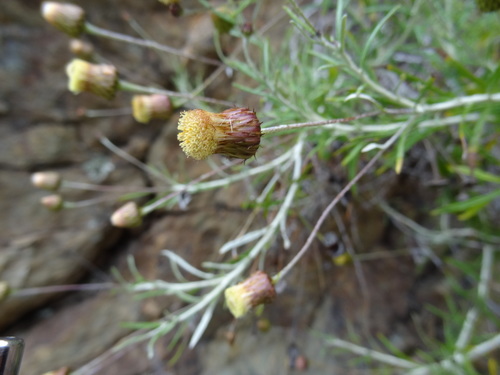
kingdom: Plantae
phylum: Tracheophyta
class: Magnoliopsida
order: Asterales
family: Asteraceae
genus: Phagnalon
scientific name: Phagnalon saxatile
